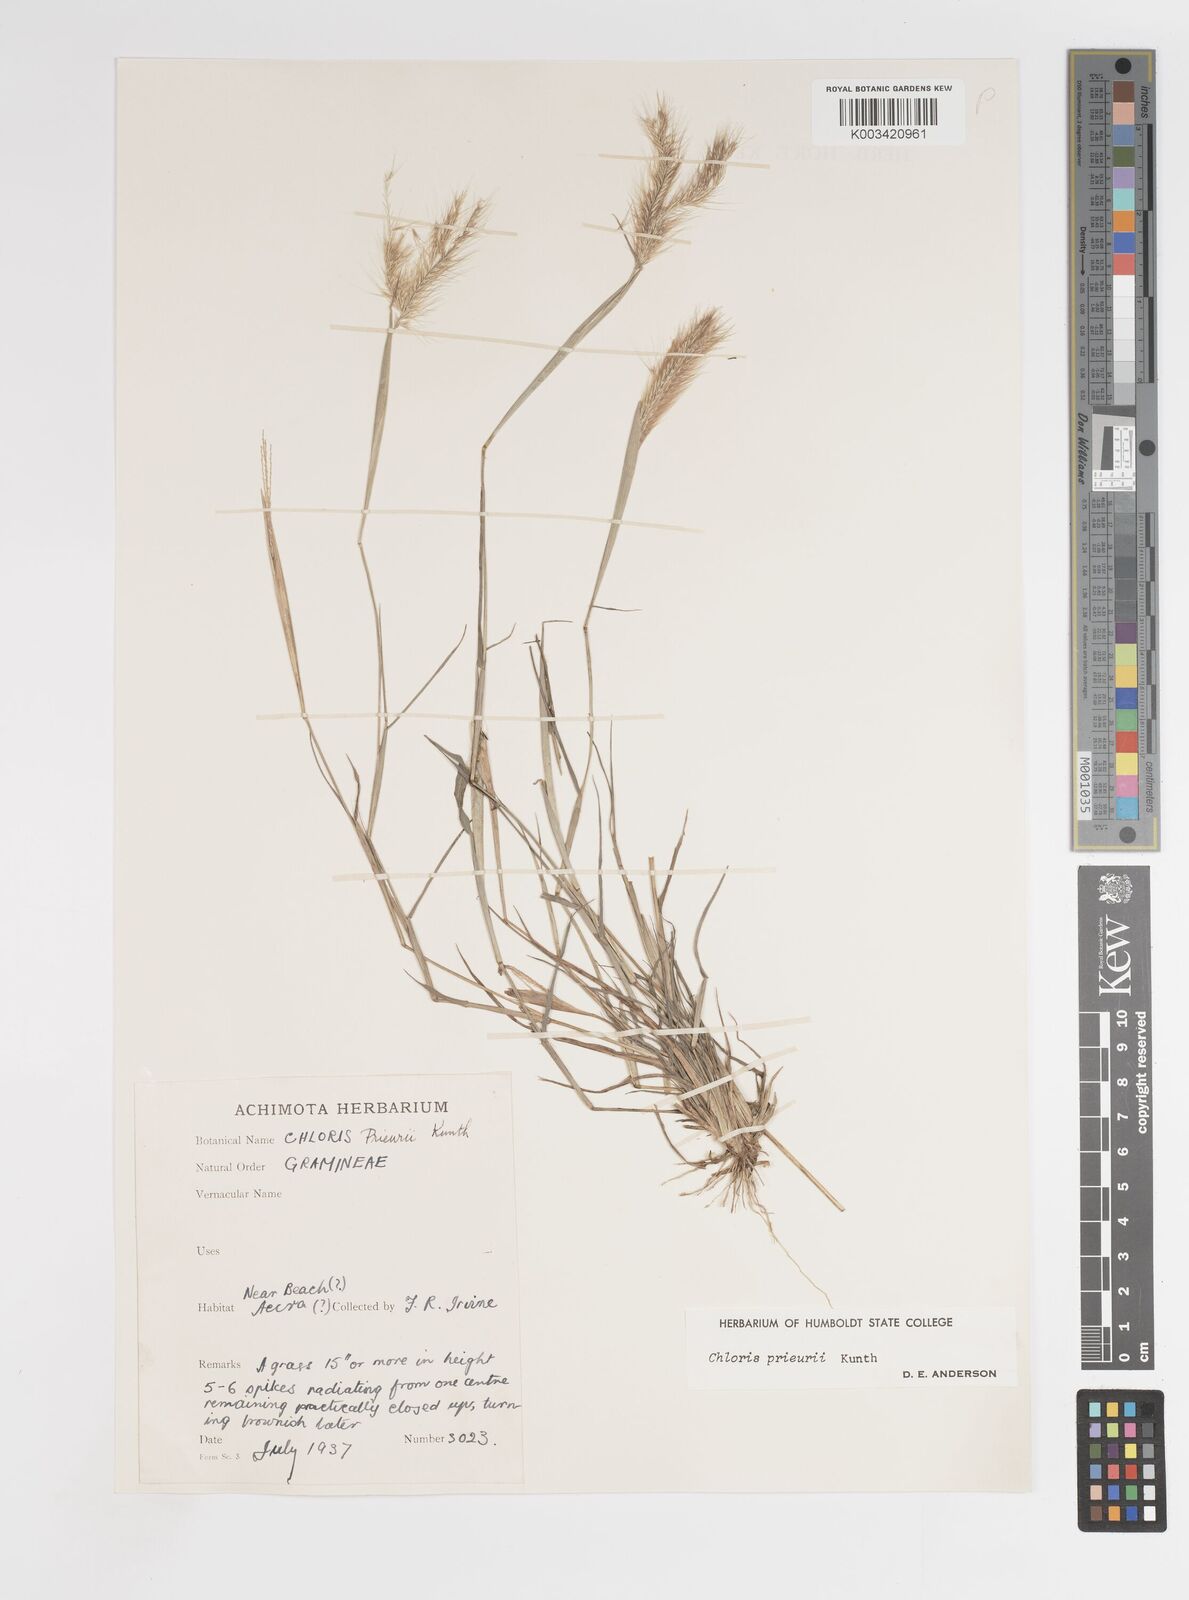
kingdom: Plantae
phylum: Tracheophyta
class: Liliopsida
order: Poales
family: Poaceae
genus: Enteropogon
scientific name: Enteropogon prieurii
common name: Prieur's umbrellagrass
